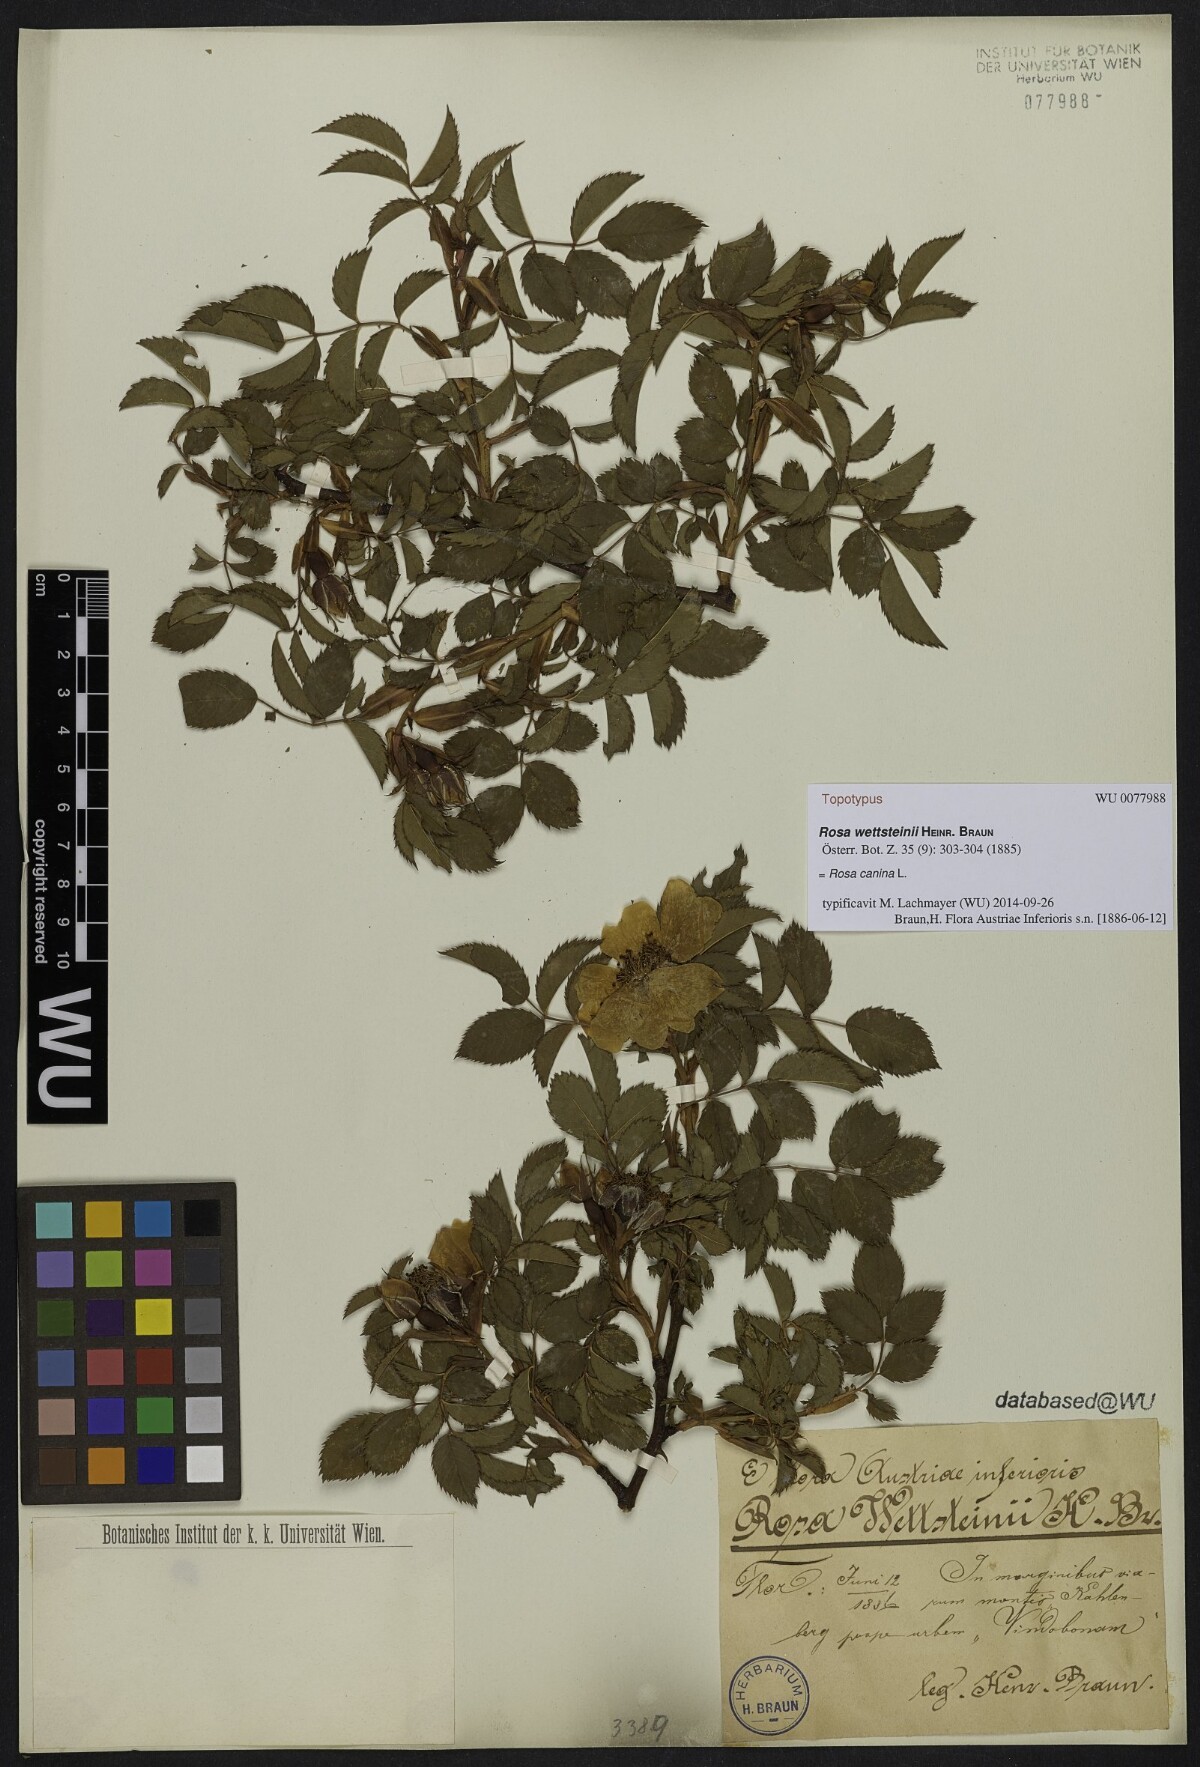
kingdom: Plantae
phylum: Tracheophyta
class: Magnoliopsida
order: Rosales
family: Rosaceae
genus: Rosa
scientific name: Rosa canina
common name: Dog rose
